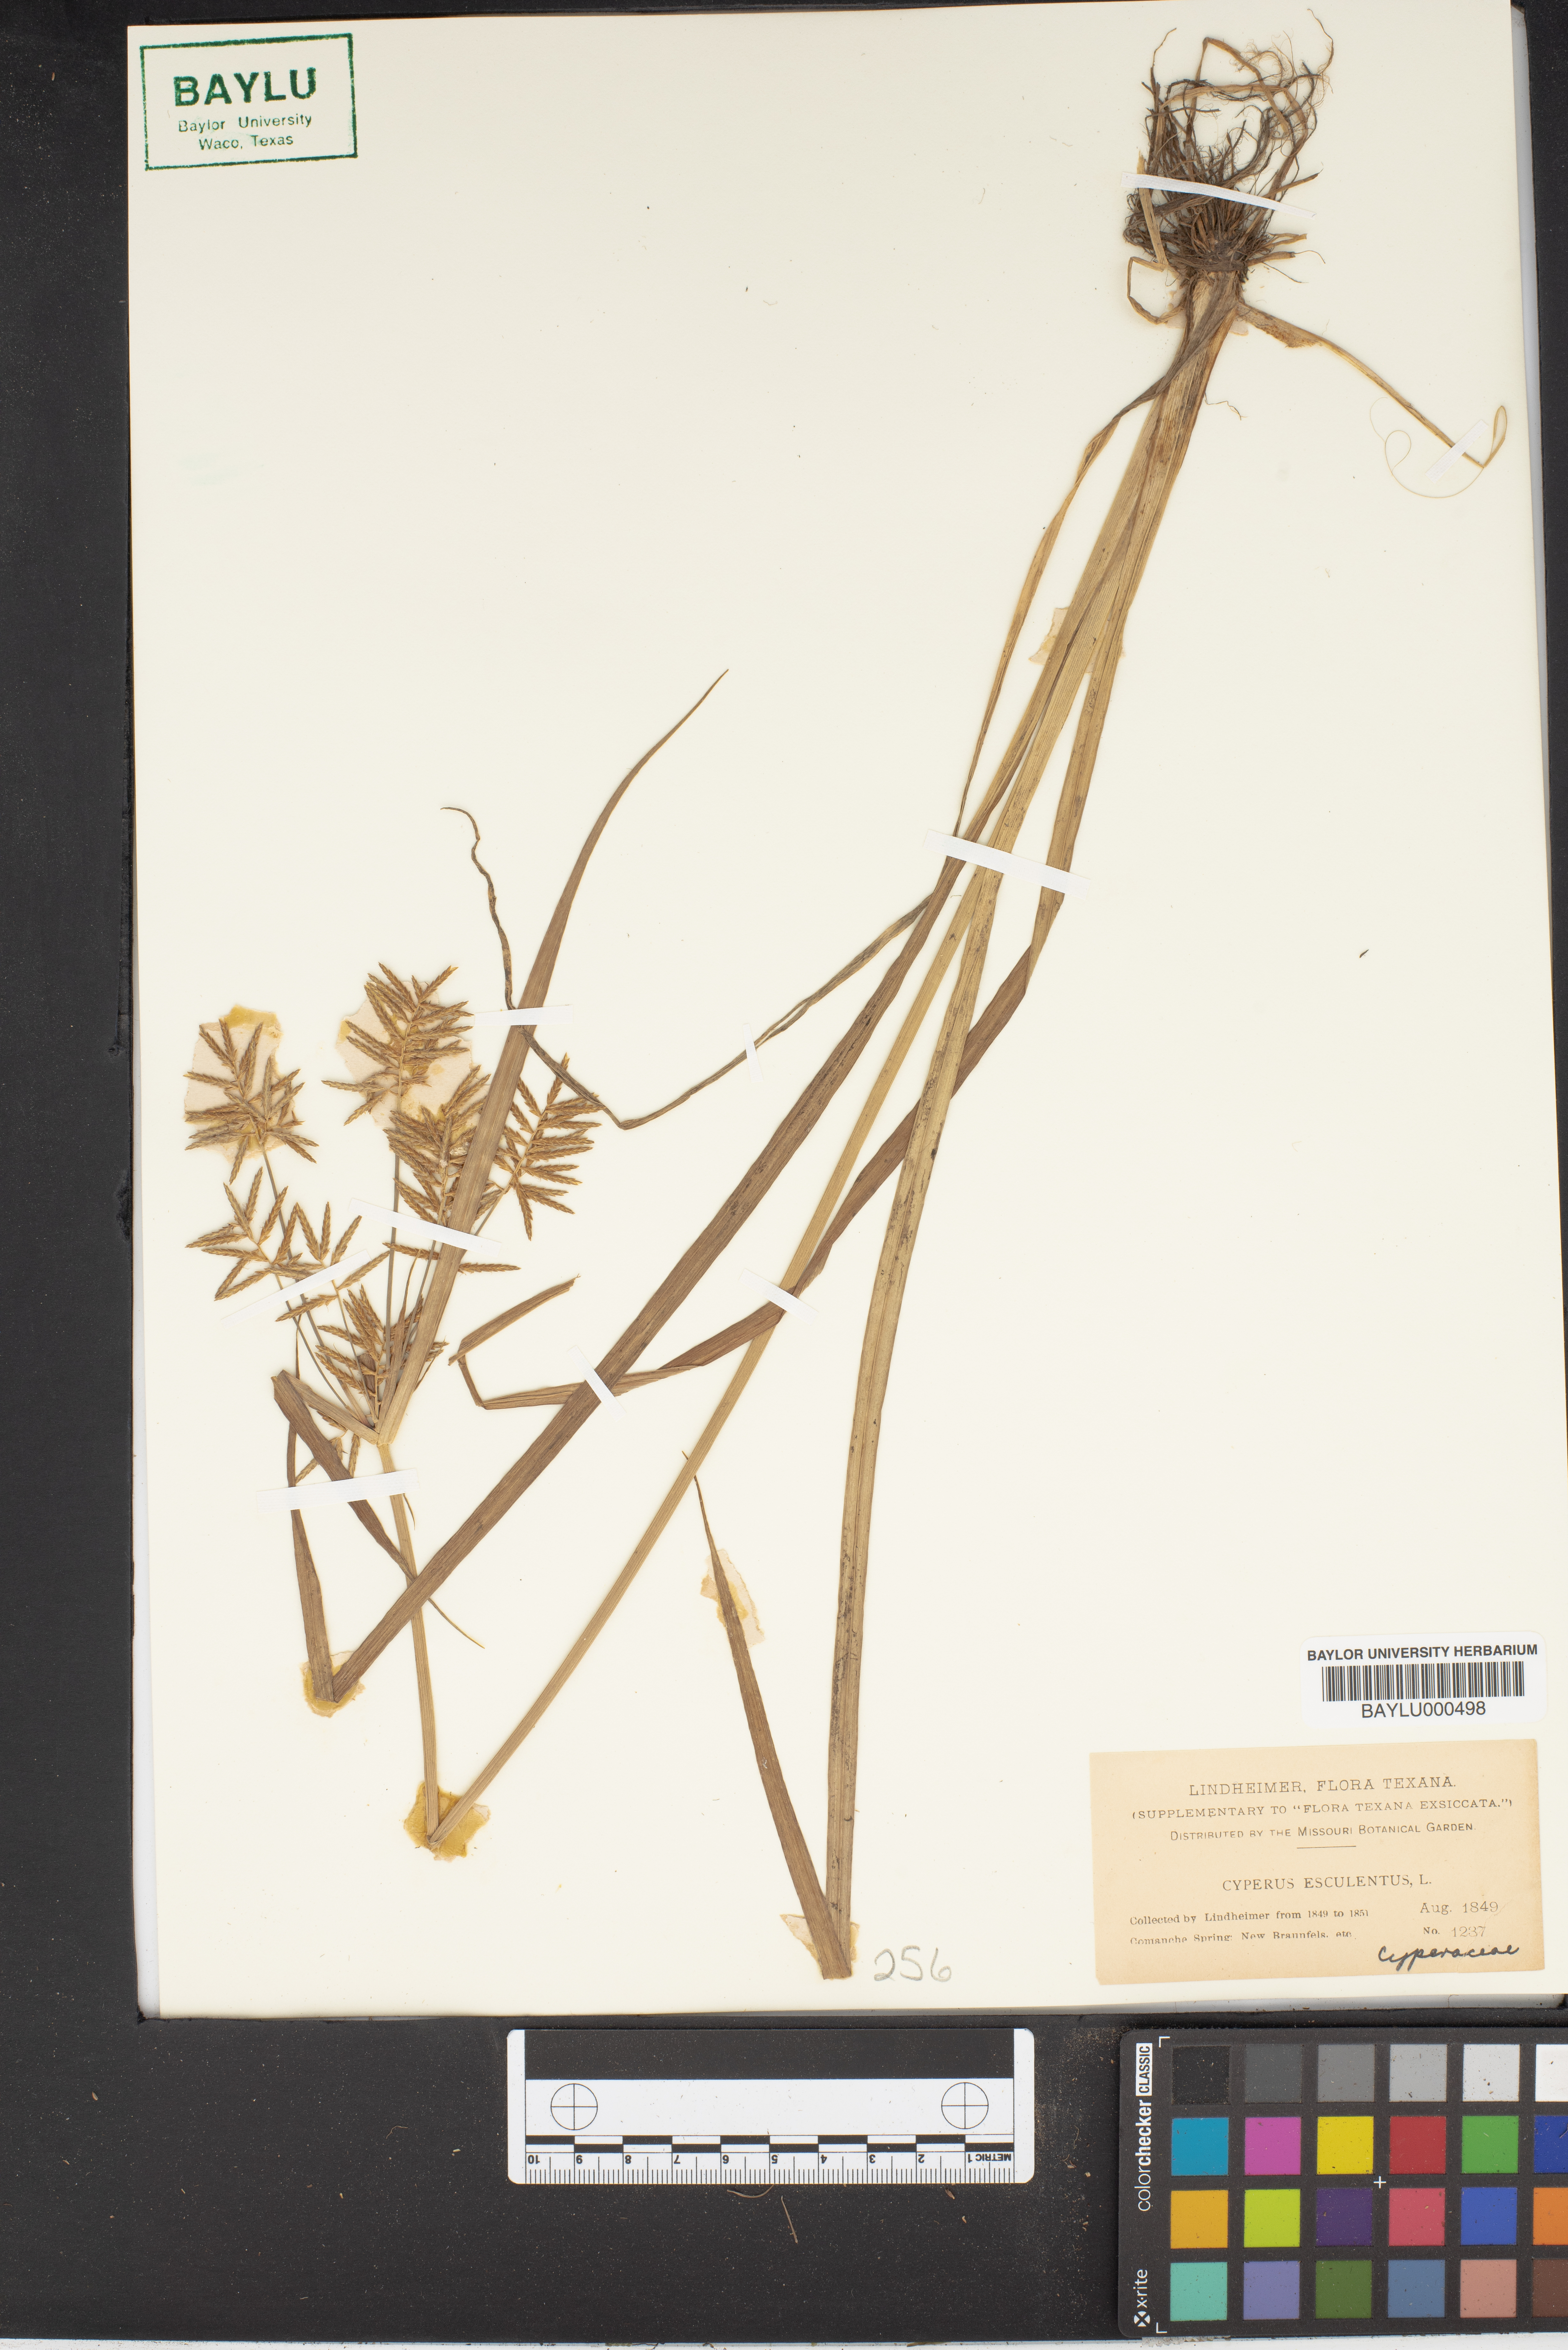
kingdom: Plantae
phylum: Tracheophyta
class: Liliopsida
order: Poales
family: Cyperaceae
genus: Cyperus
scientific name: Cyperus esculentus
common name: Yellow nutsedge
